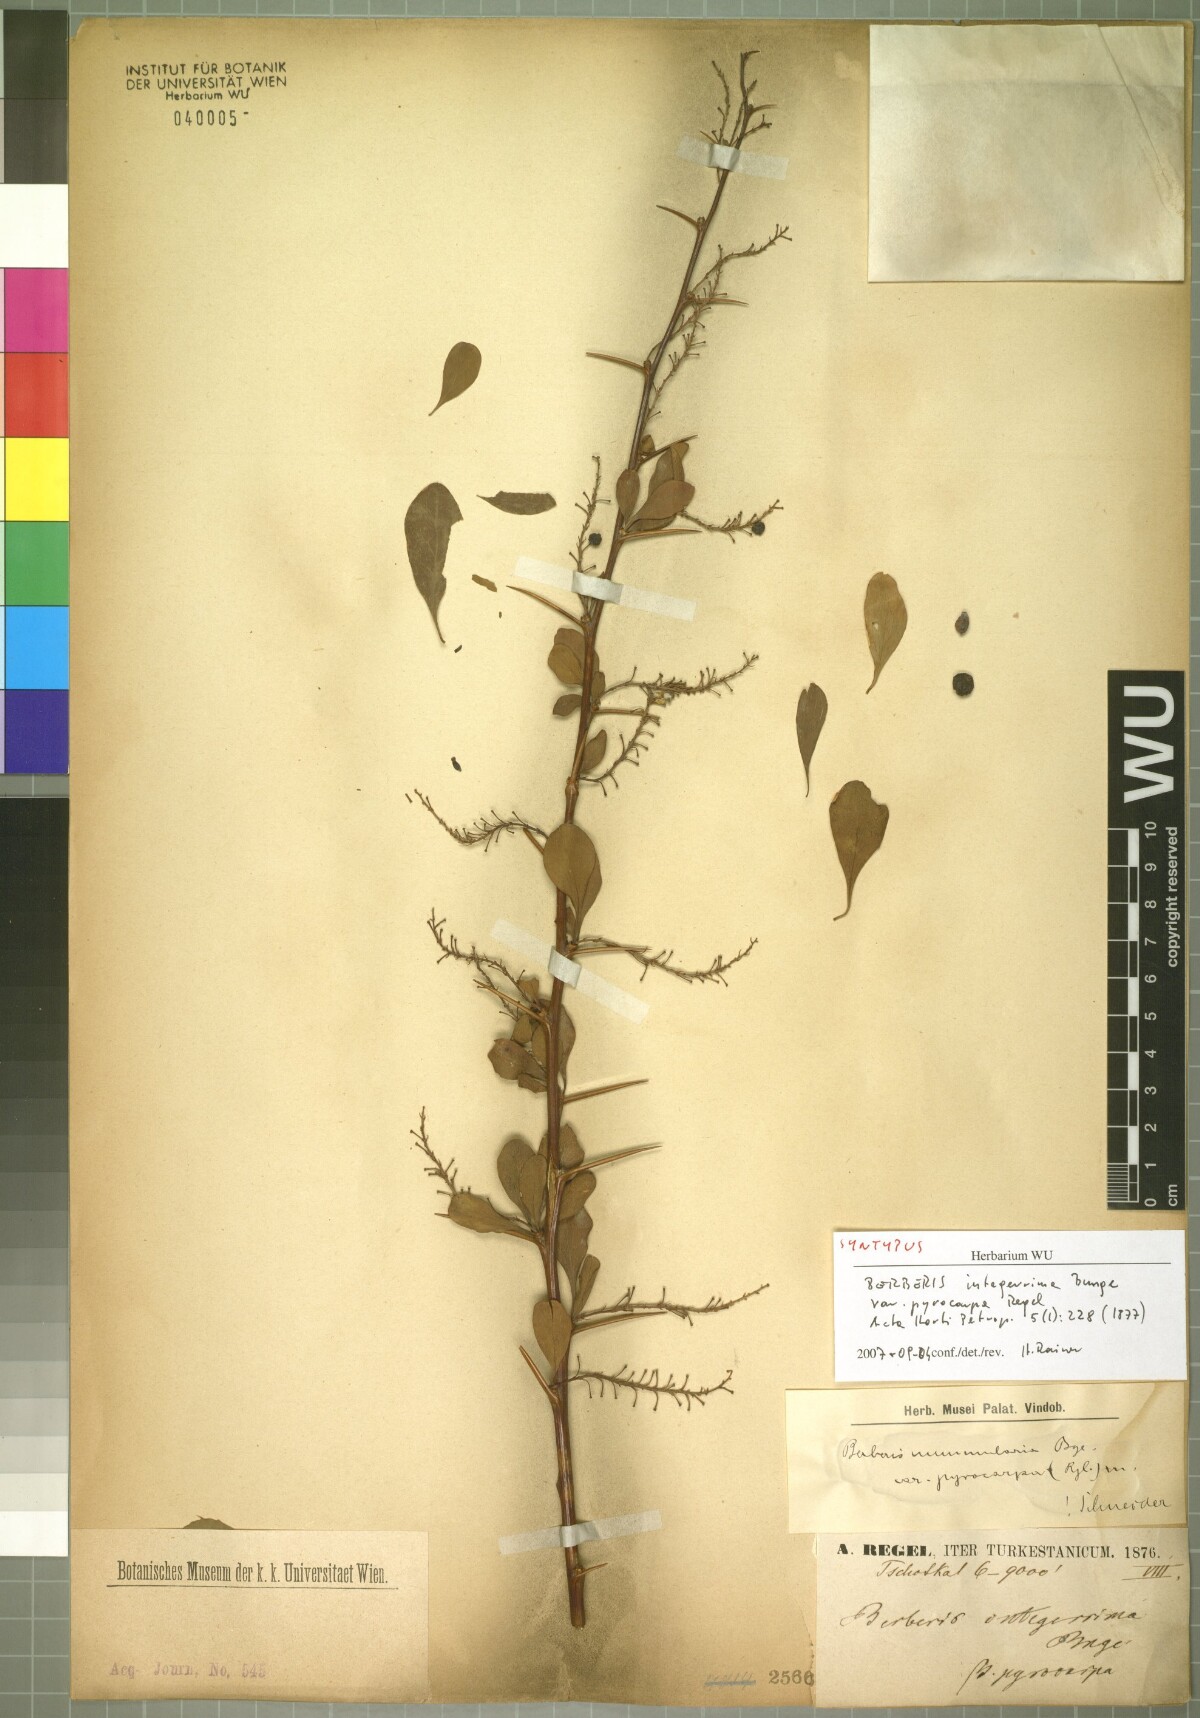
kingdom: Plantae
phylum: Tracheophyta
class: Magnoliopsida
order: Ranunculales
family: Berberidaceae
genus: Berberis
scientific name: Berberis nummularia
